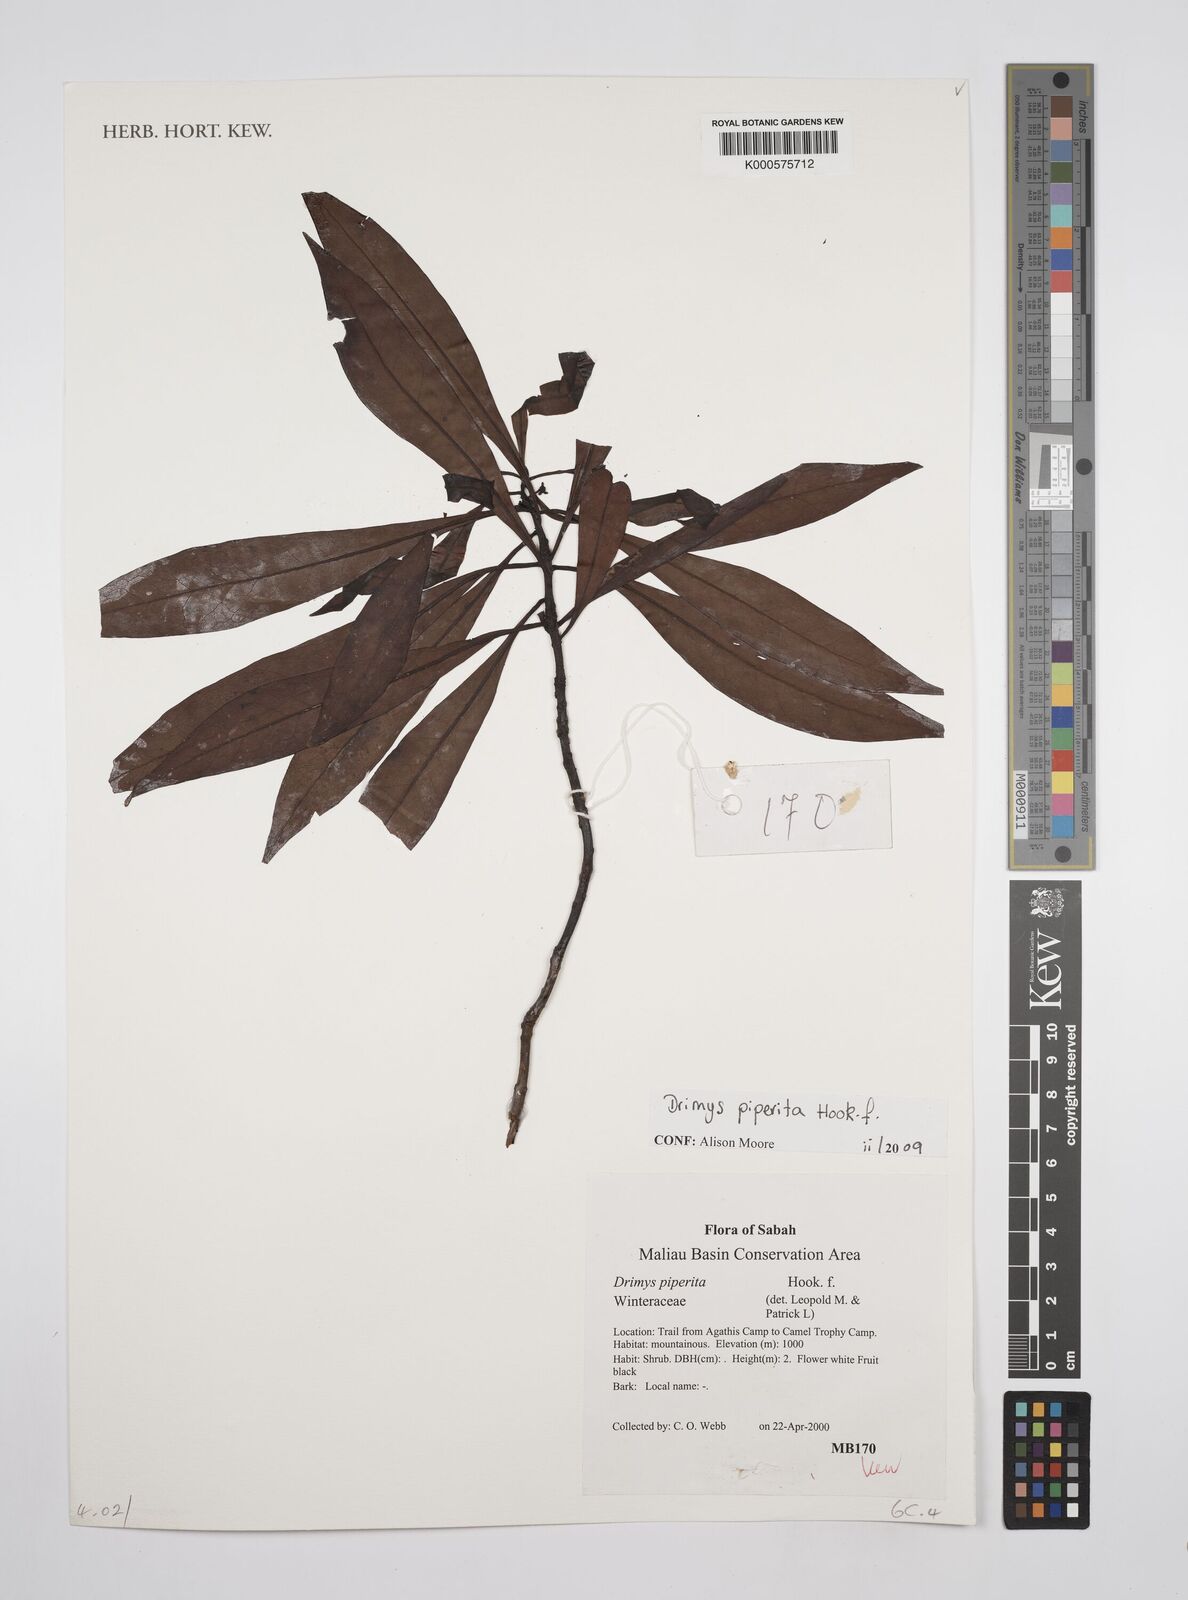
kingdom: Plantae
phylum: Tracheophyta
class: Magnoliopsida
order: Canellales
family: Winteraceae
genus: Drimys
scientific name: Drimys piperita
